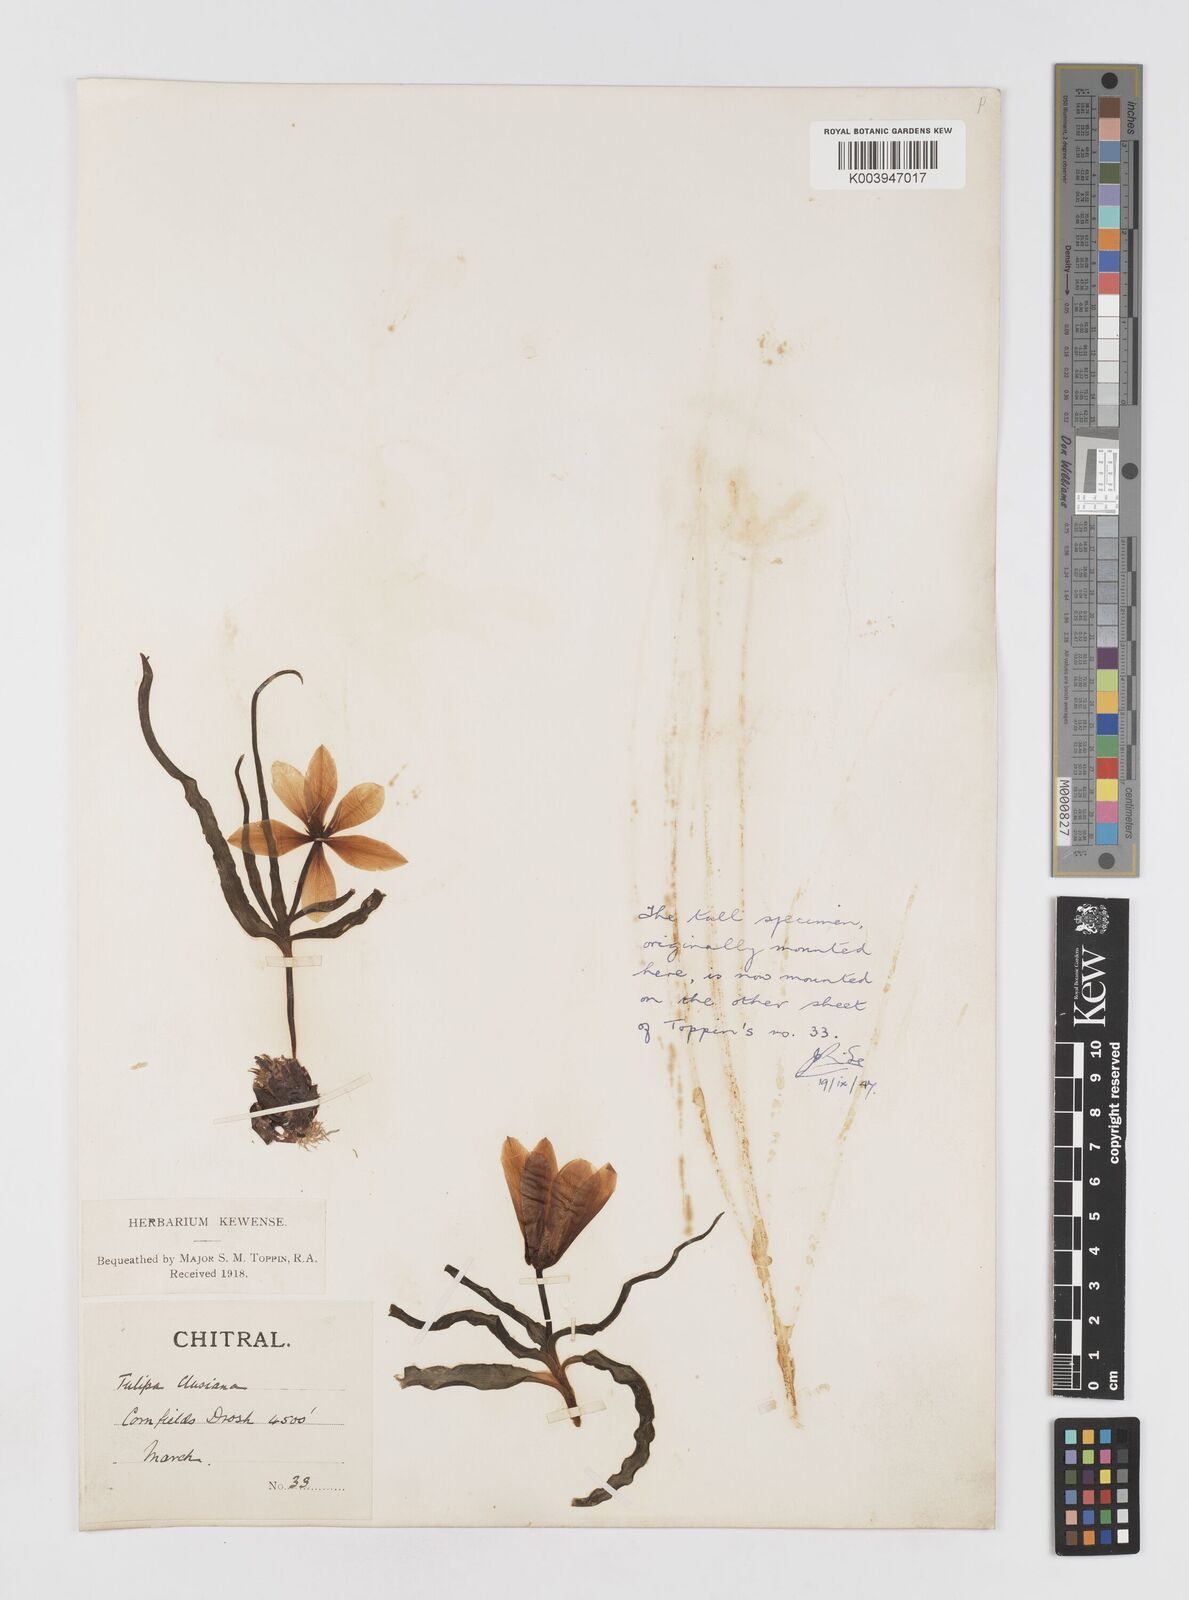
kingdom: Plantae
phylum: Tracheophyta
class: Liliopsida
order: Liliales
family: Liliaceae
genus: Tulipa
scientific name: Tulipa clusiana
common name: Lady tulip
